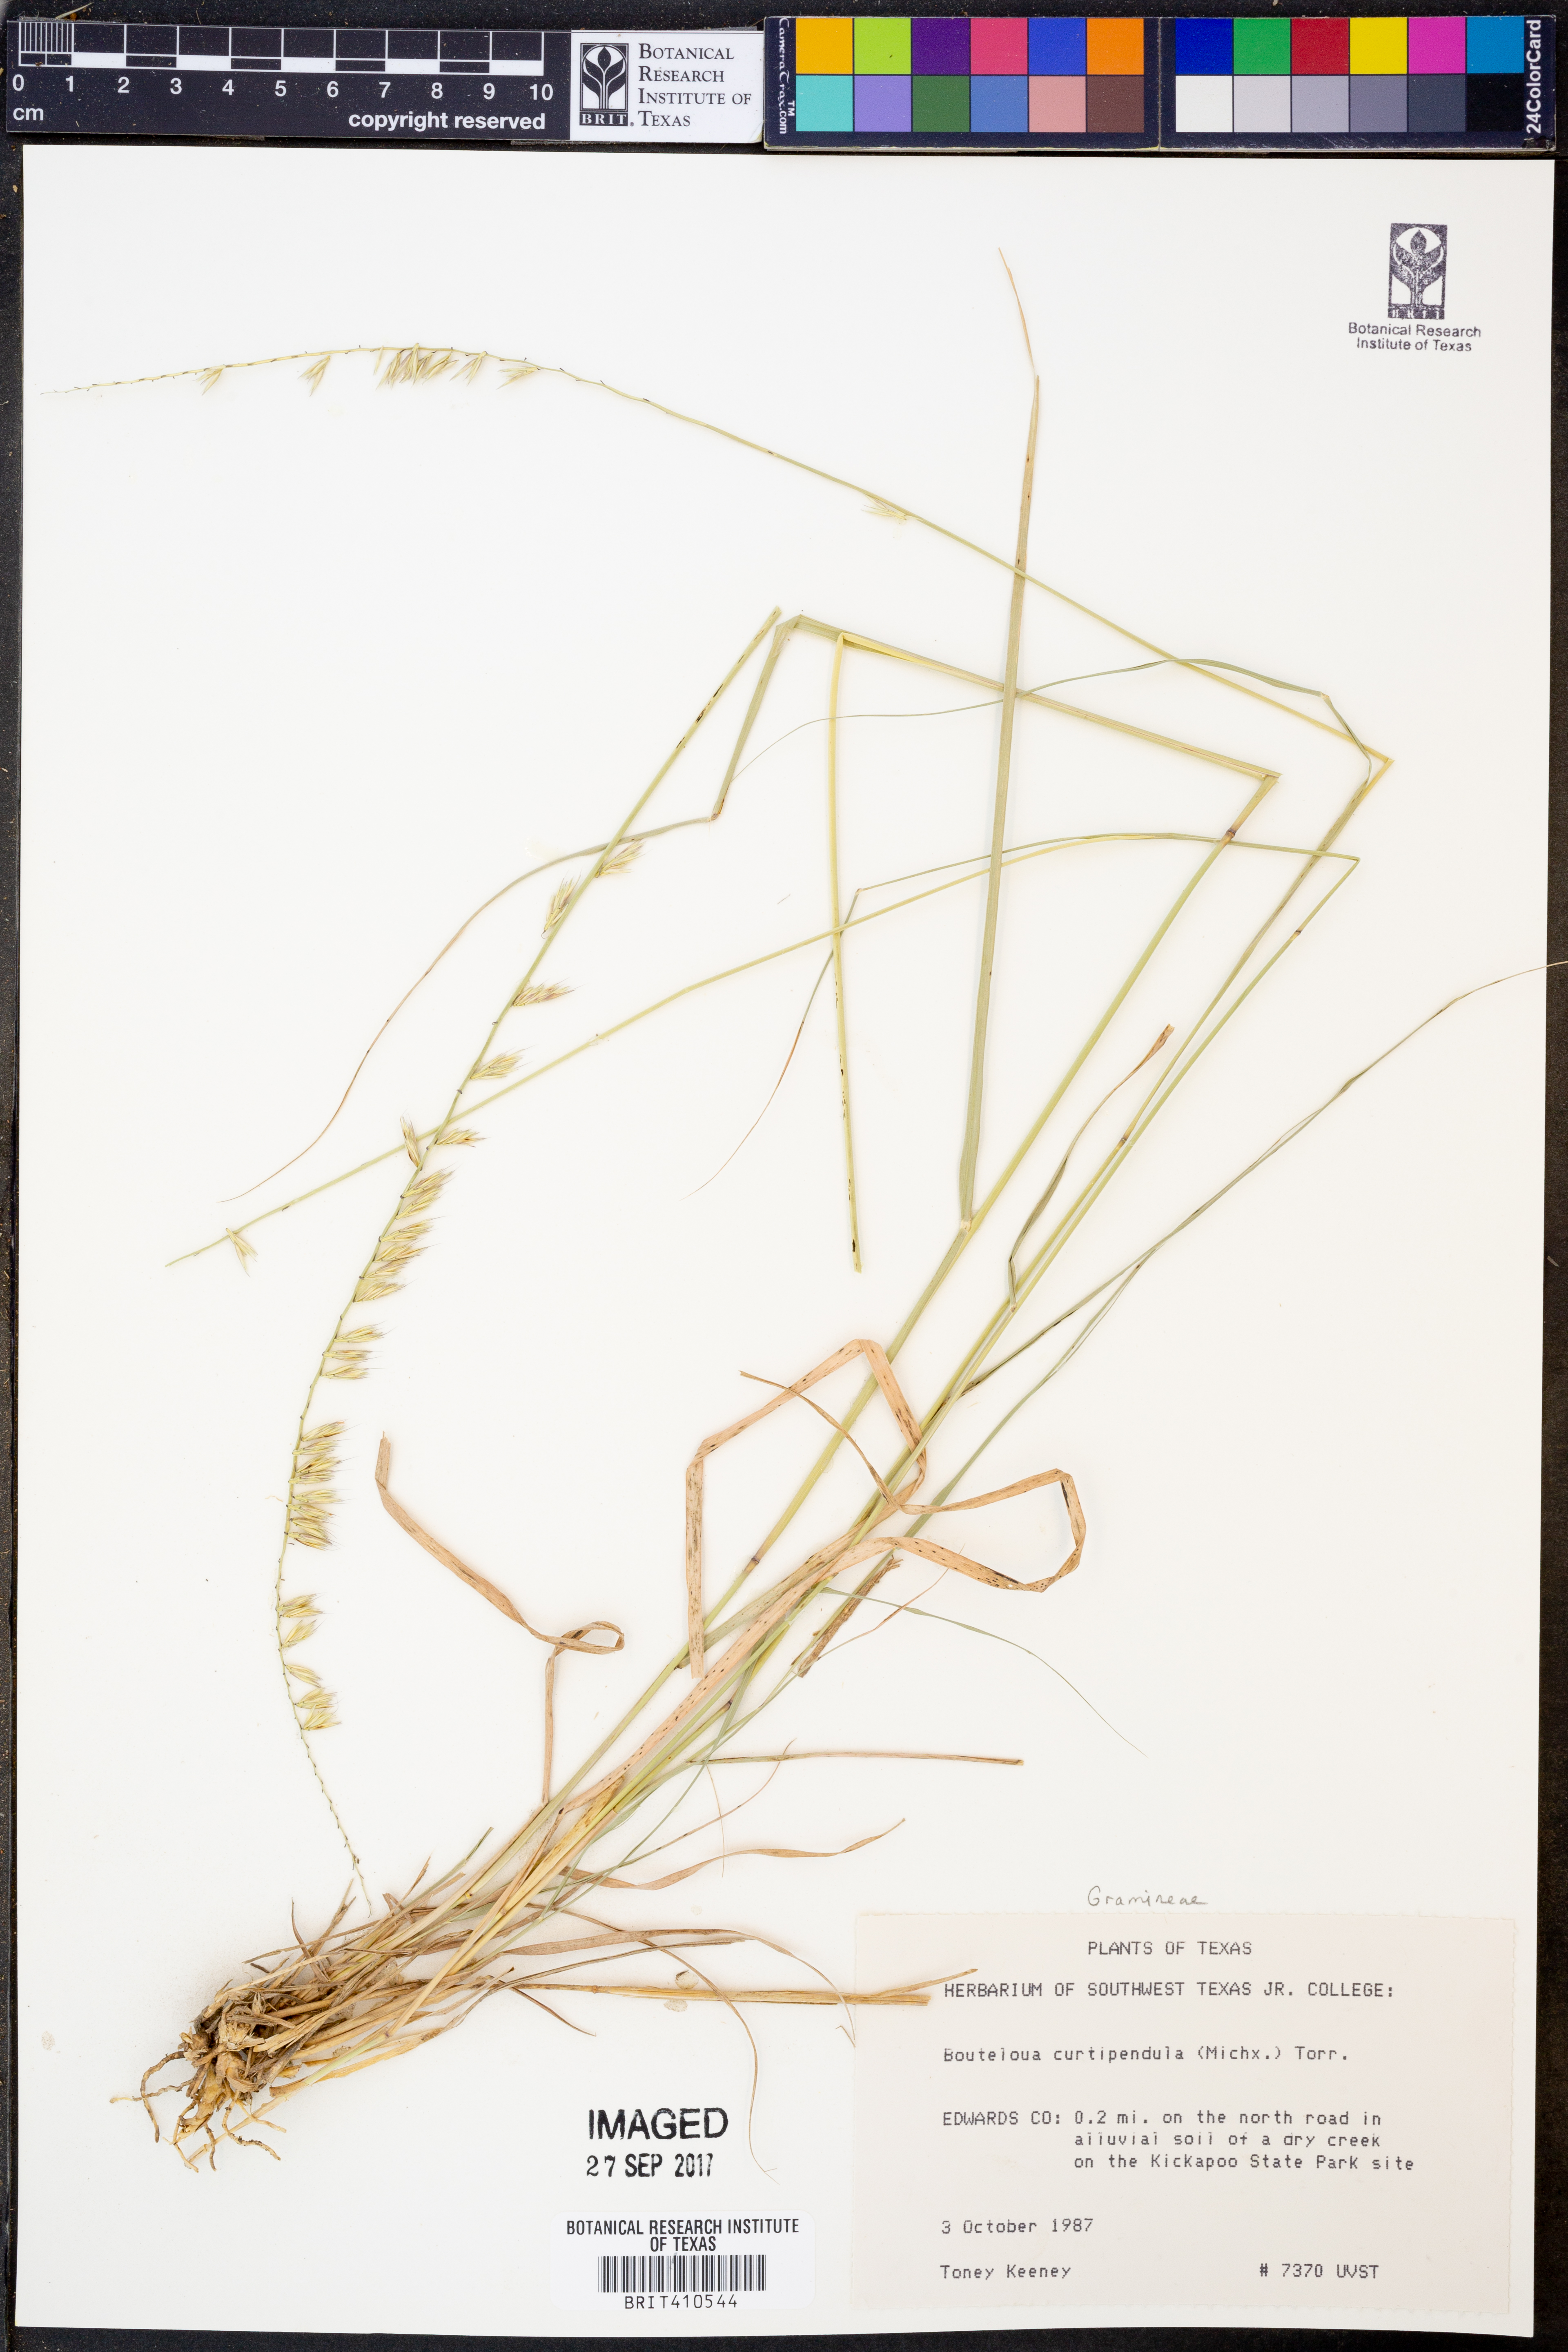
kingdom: Plantae
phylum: Tracheophyta
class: Liliopsida
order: Poales
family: Poaceae
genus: Bouteloua
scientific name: Bouteloua curtipendula
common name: Side-oats grama
